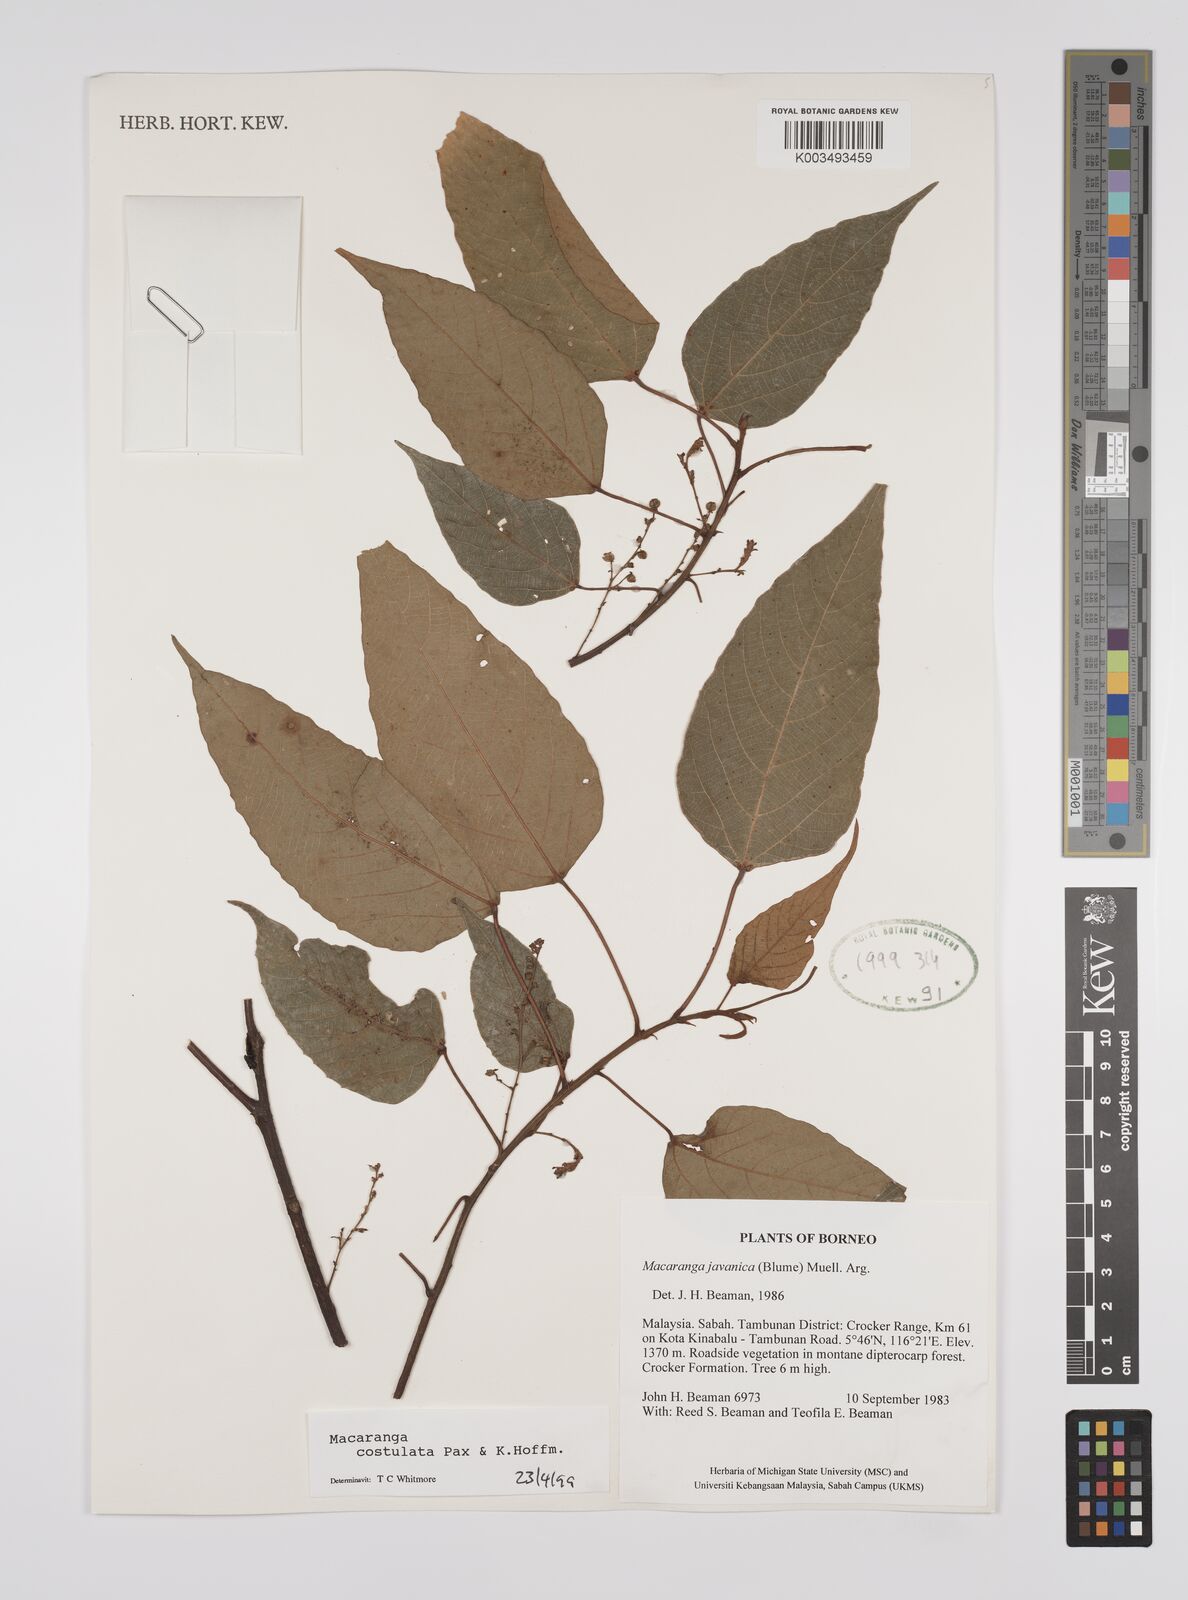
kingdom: Plantae
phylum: Tracheophyta
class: Magnoliopsida
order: Malpighiales
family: Euphorbiaceae
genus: Macaranga
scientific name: Macaranga costulata
